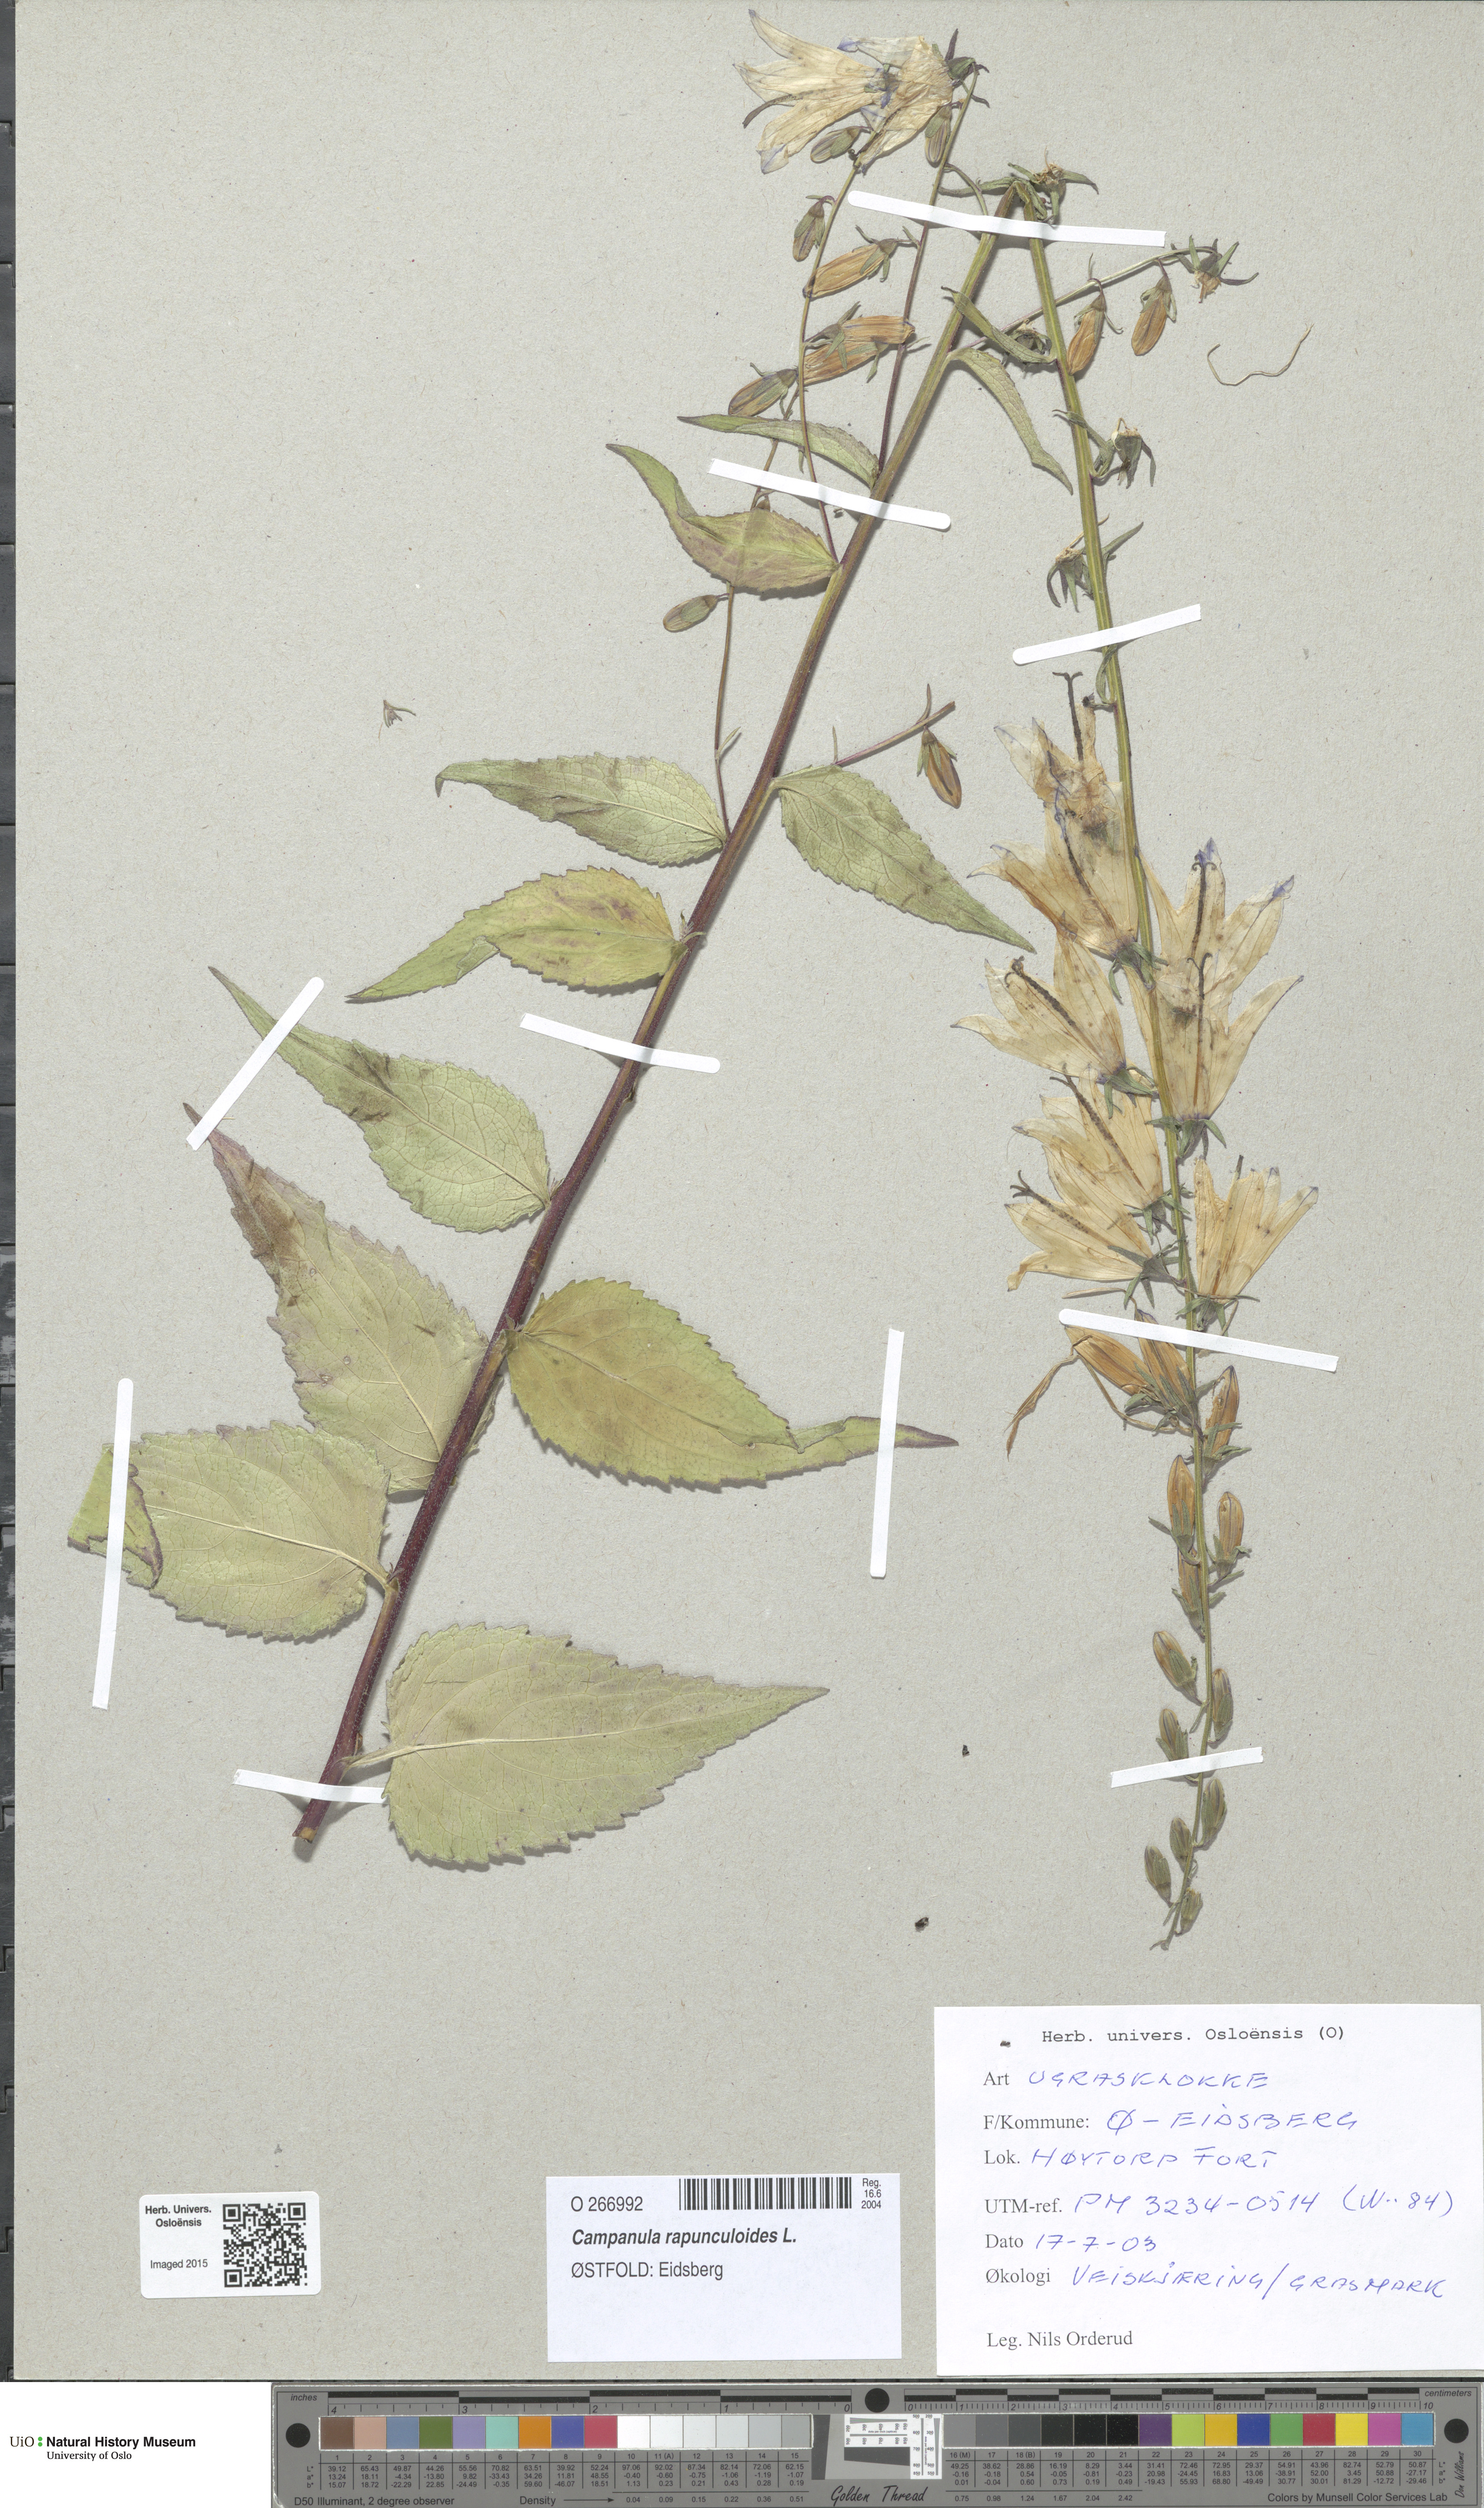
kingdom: Plantae
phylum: Tracheophyta
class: Magnoliopsida
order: Asterales
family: Campanulaceae
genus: Campanula
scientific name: Campanula rapunculoides
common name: Creeping bellflower
